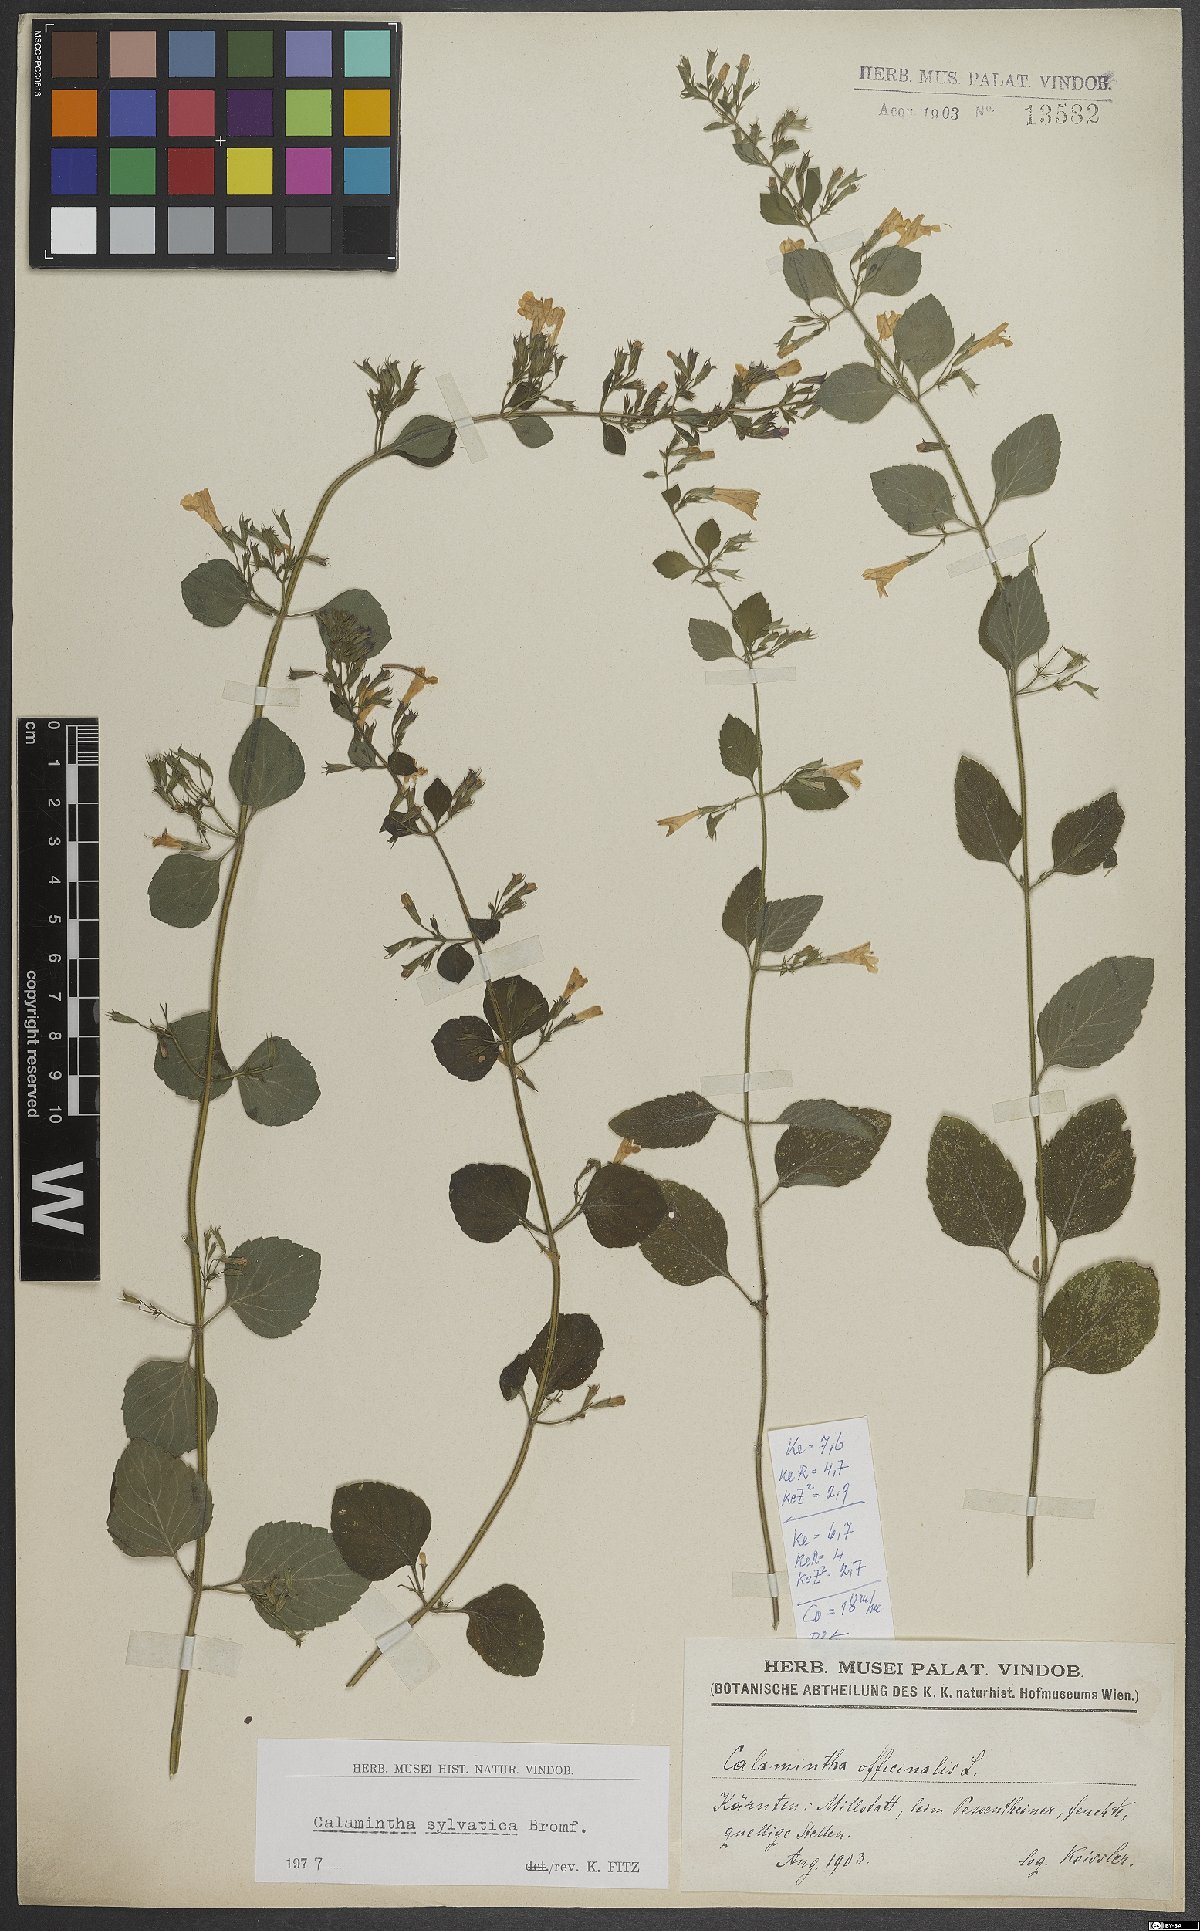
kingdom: Plantae
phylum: Tracheophyta
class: Magnoliopsida
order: Lamiales
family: Lamiaceae
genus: Clinopodium
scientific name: Clinopodium menthifolium
